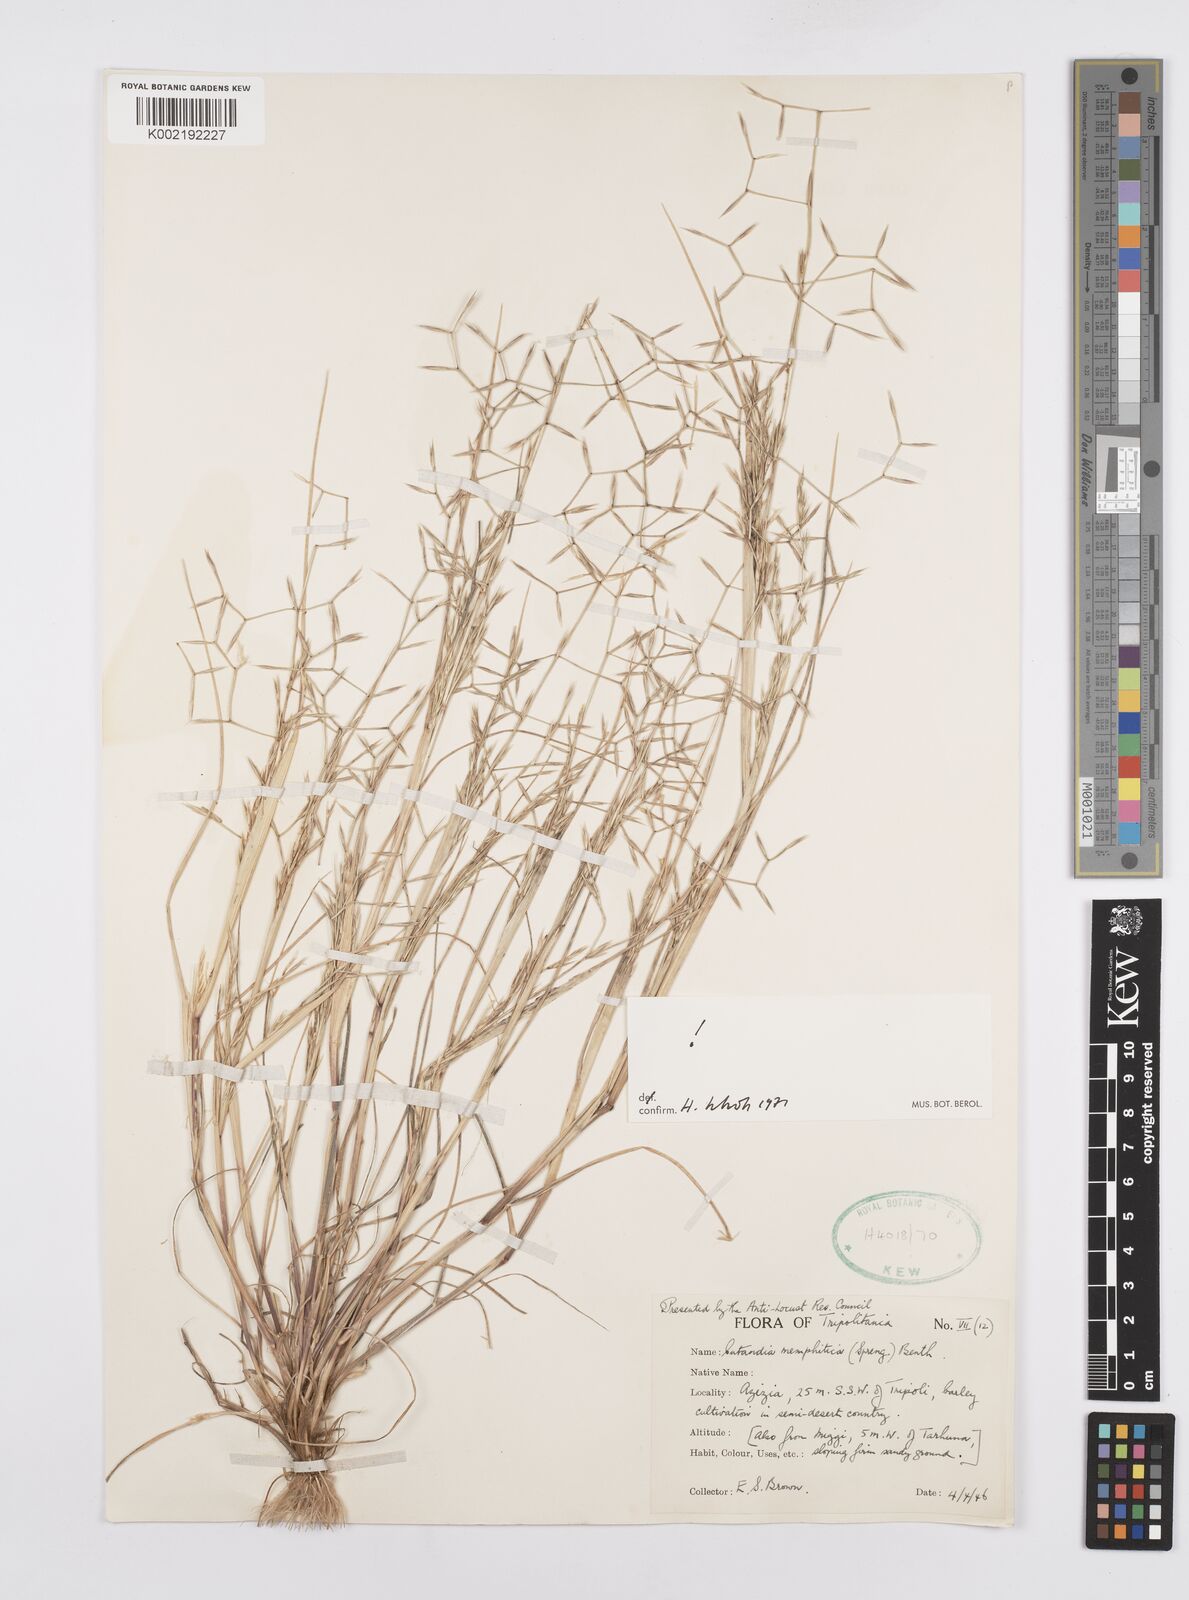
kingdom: Plantae
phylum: Tracheophyta
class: Liliopsida
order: Poales
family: Poaceae
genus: Cutandia
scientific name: Cutandia memphitica
